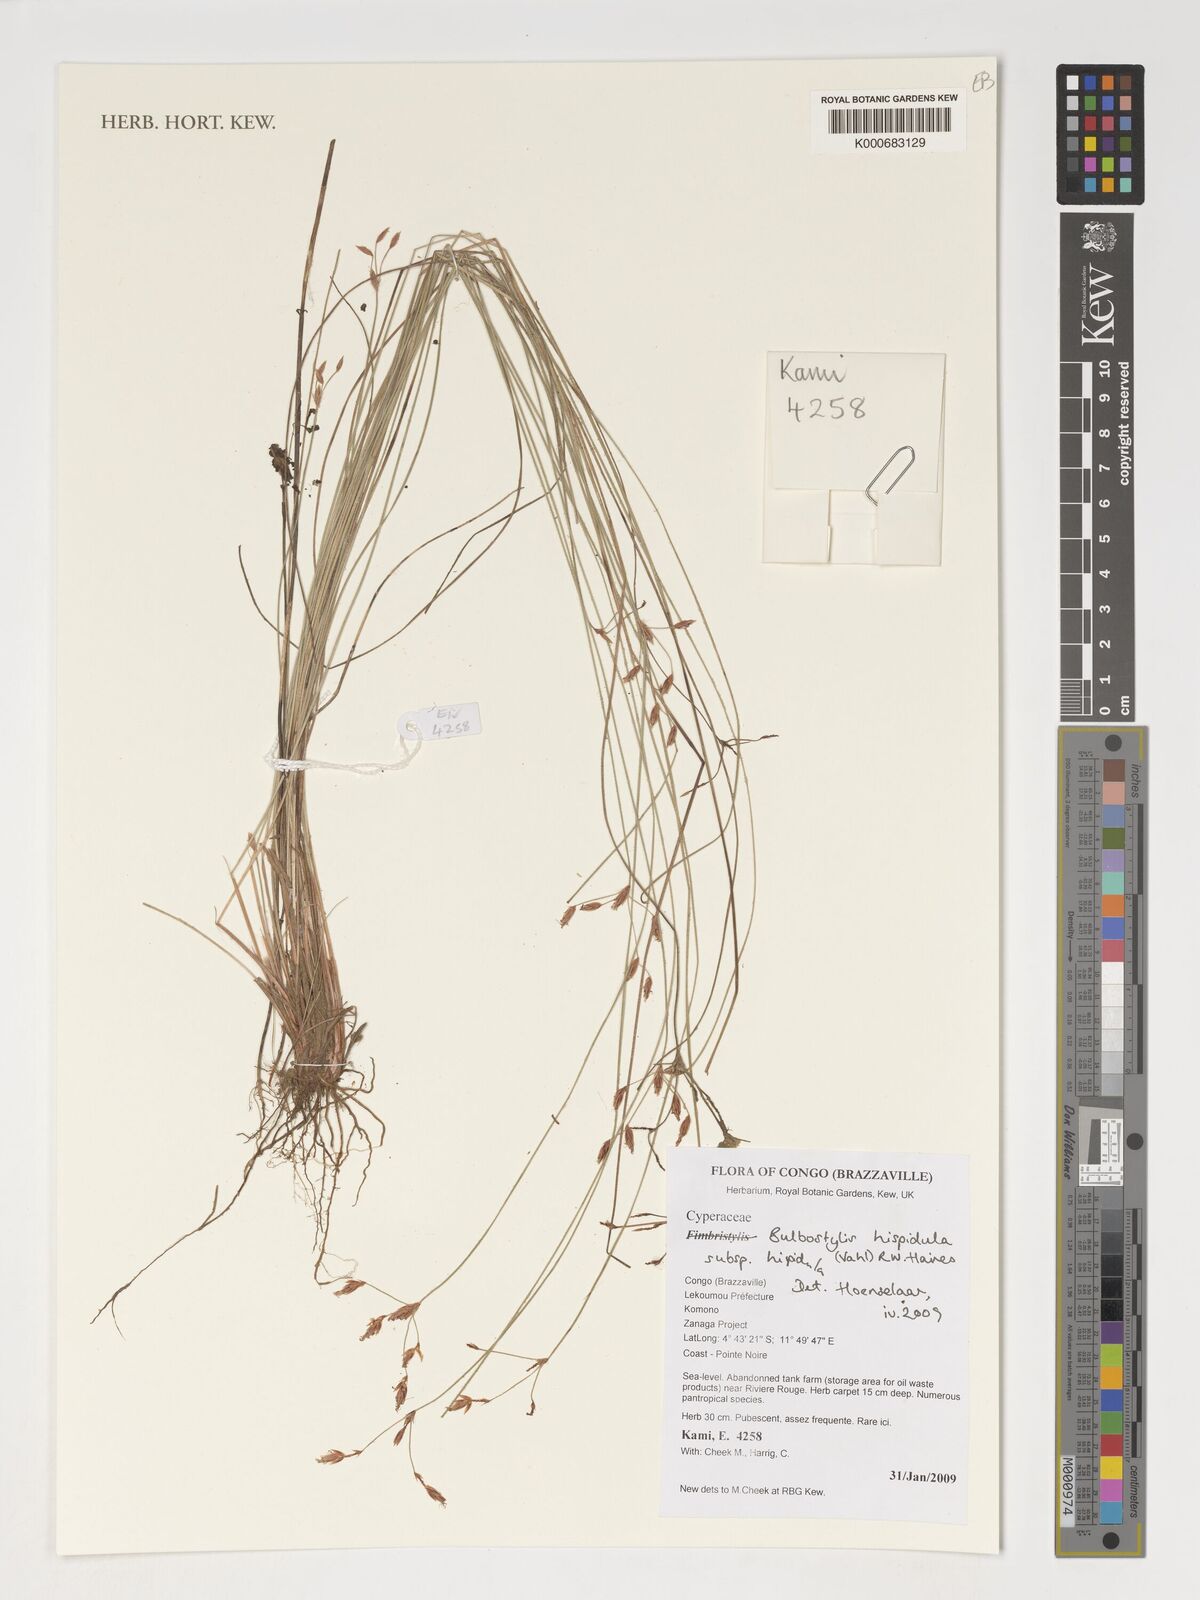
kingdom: Plantae
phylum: Tracheophyta
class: Liliopsida
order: Poales
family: Cyperaceae
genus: Bulbostylis
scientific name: Bulbostylis hispidula
